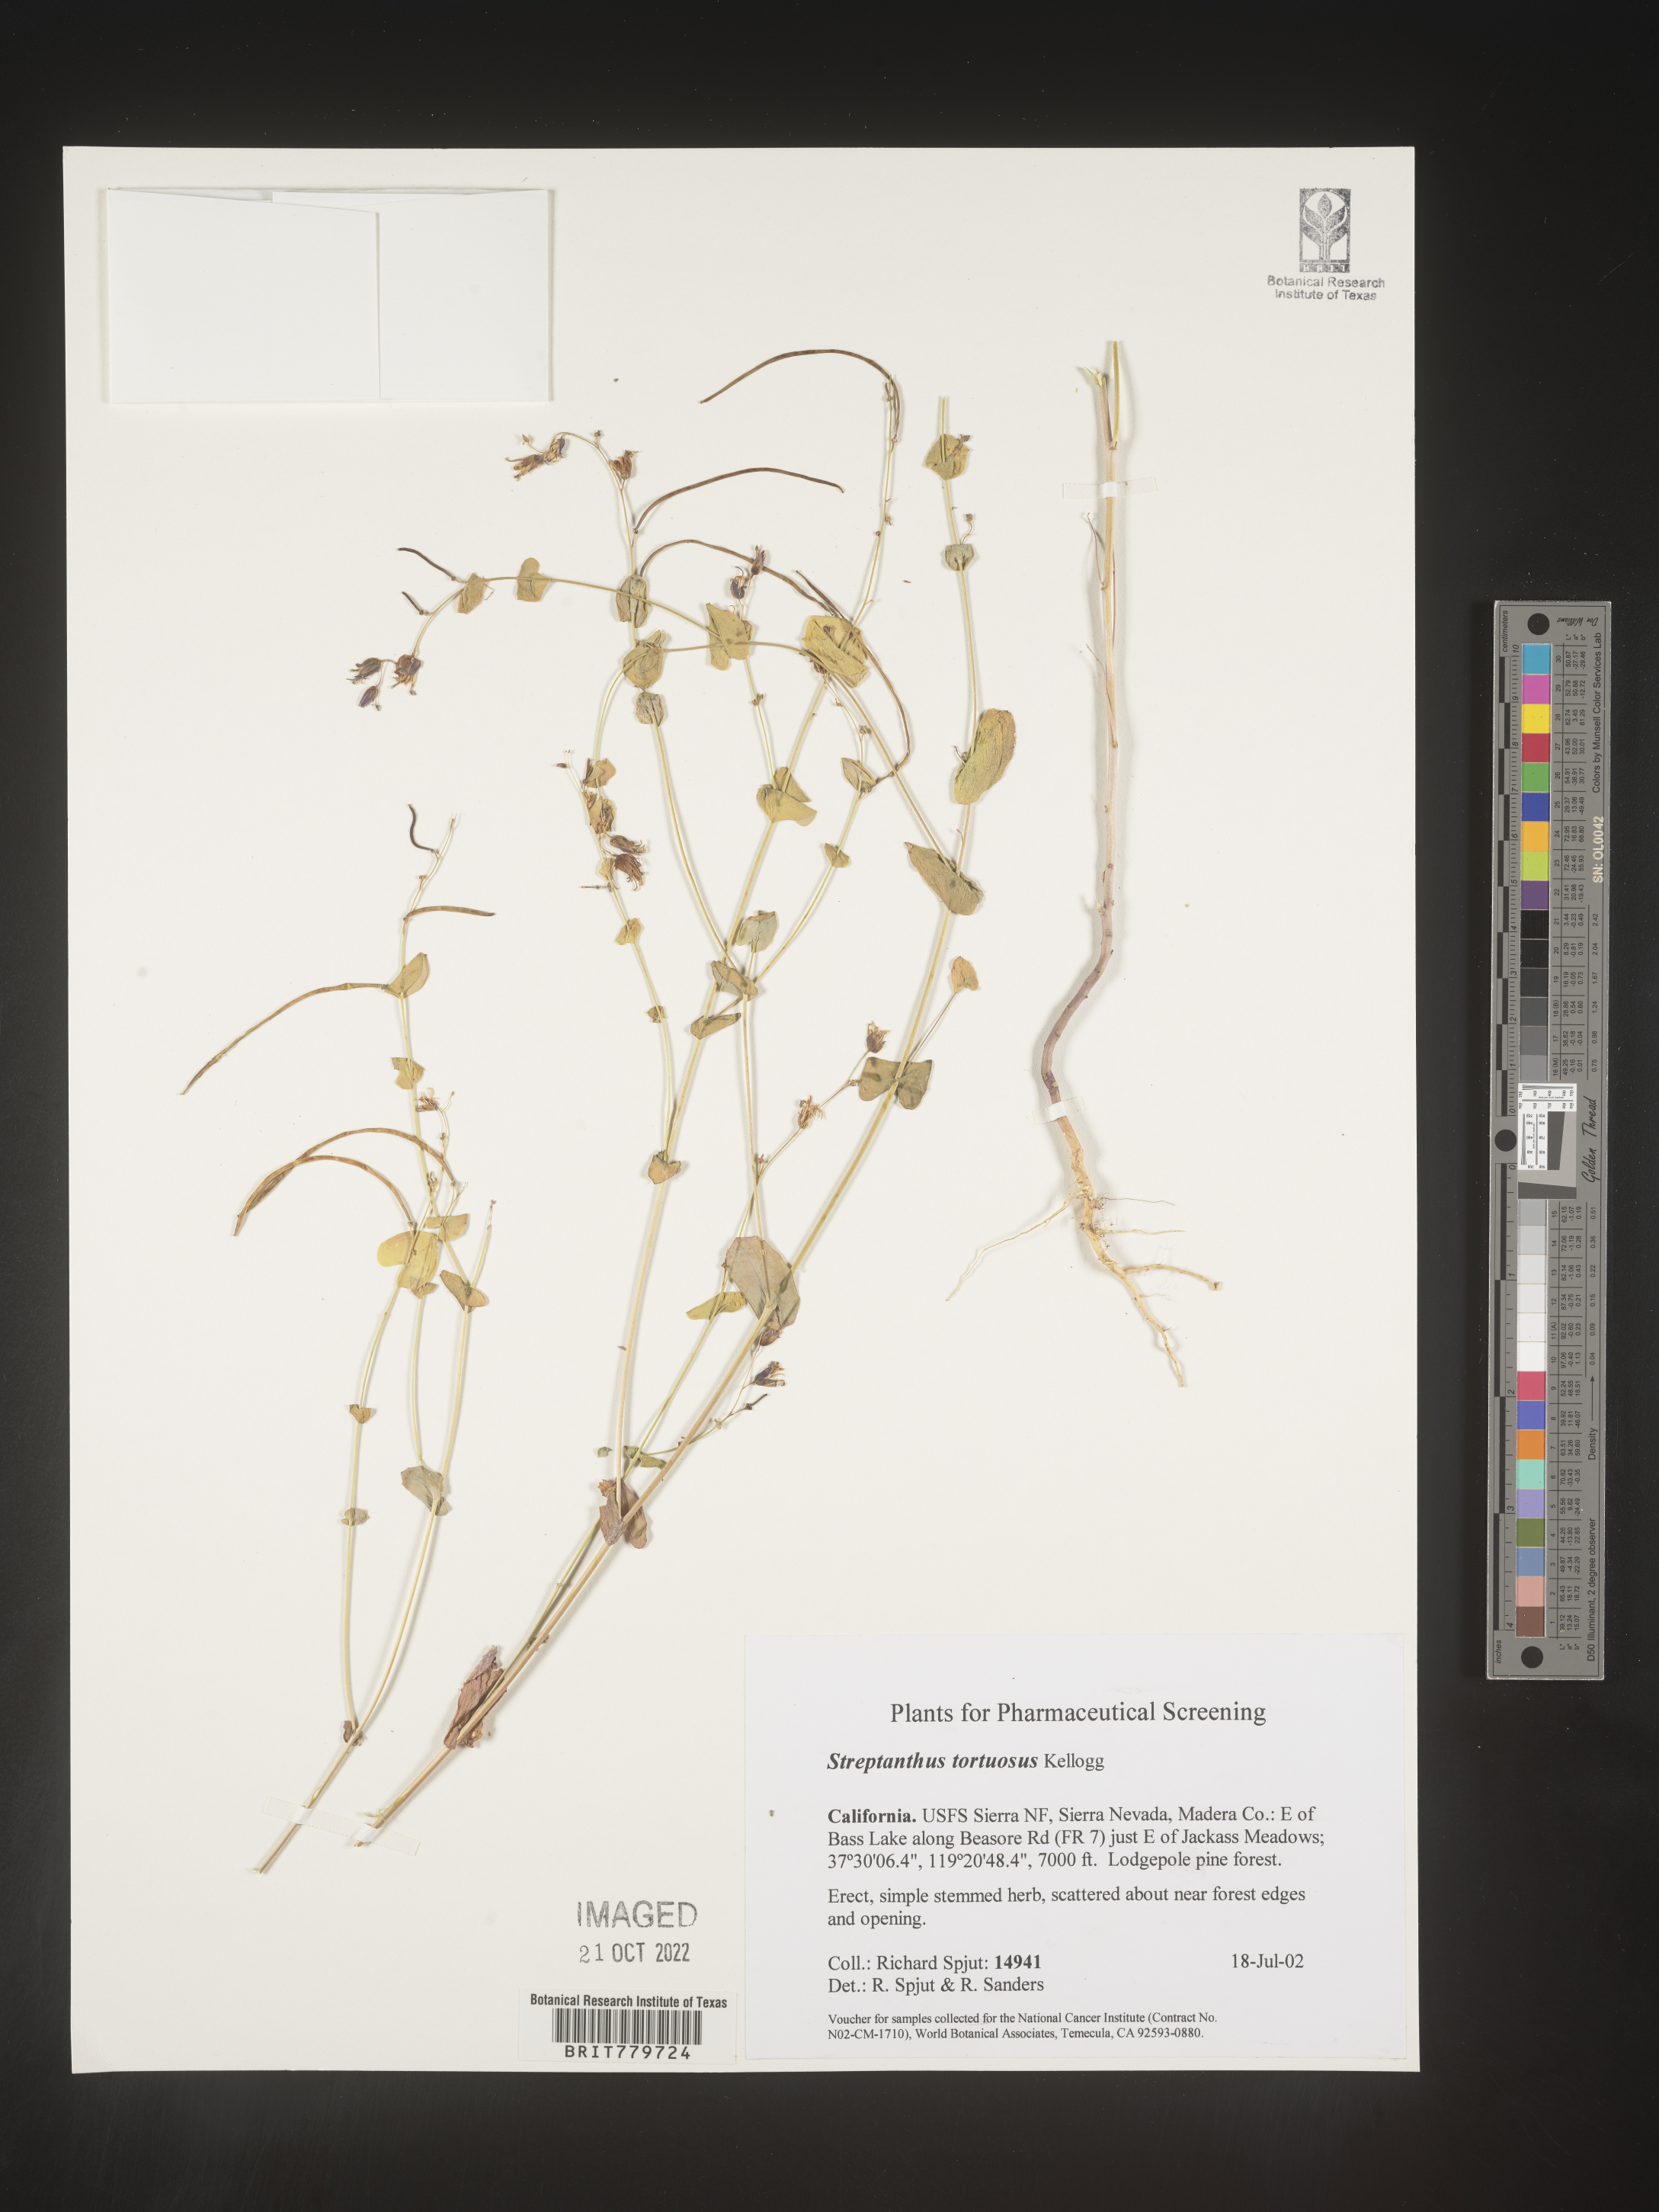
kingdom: Plantae
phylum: Tracheophyta
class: Magnoliopsida
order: Brassicales
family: Brassicaceae
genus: Streptanthus
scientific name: Streptanthus
